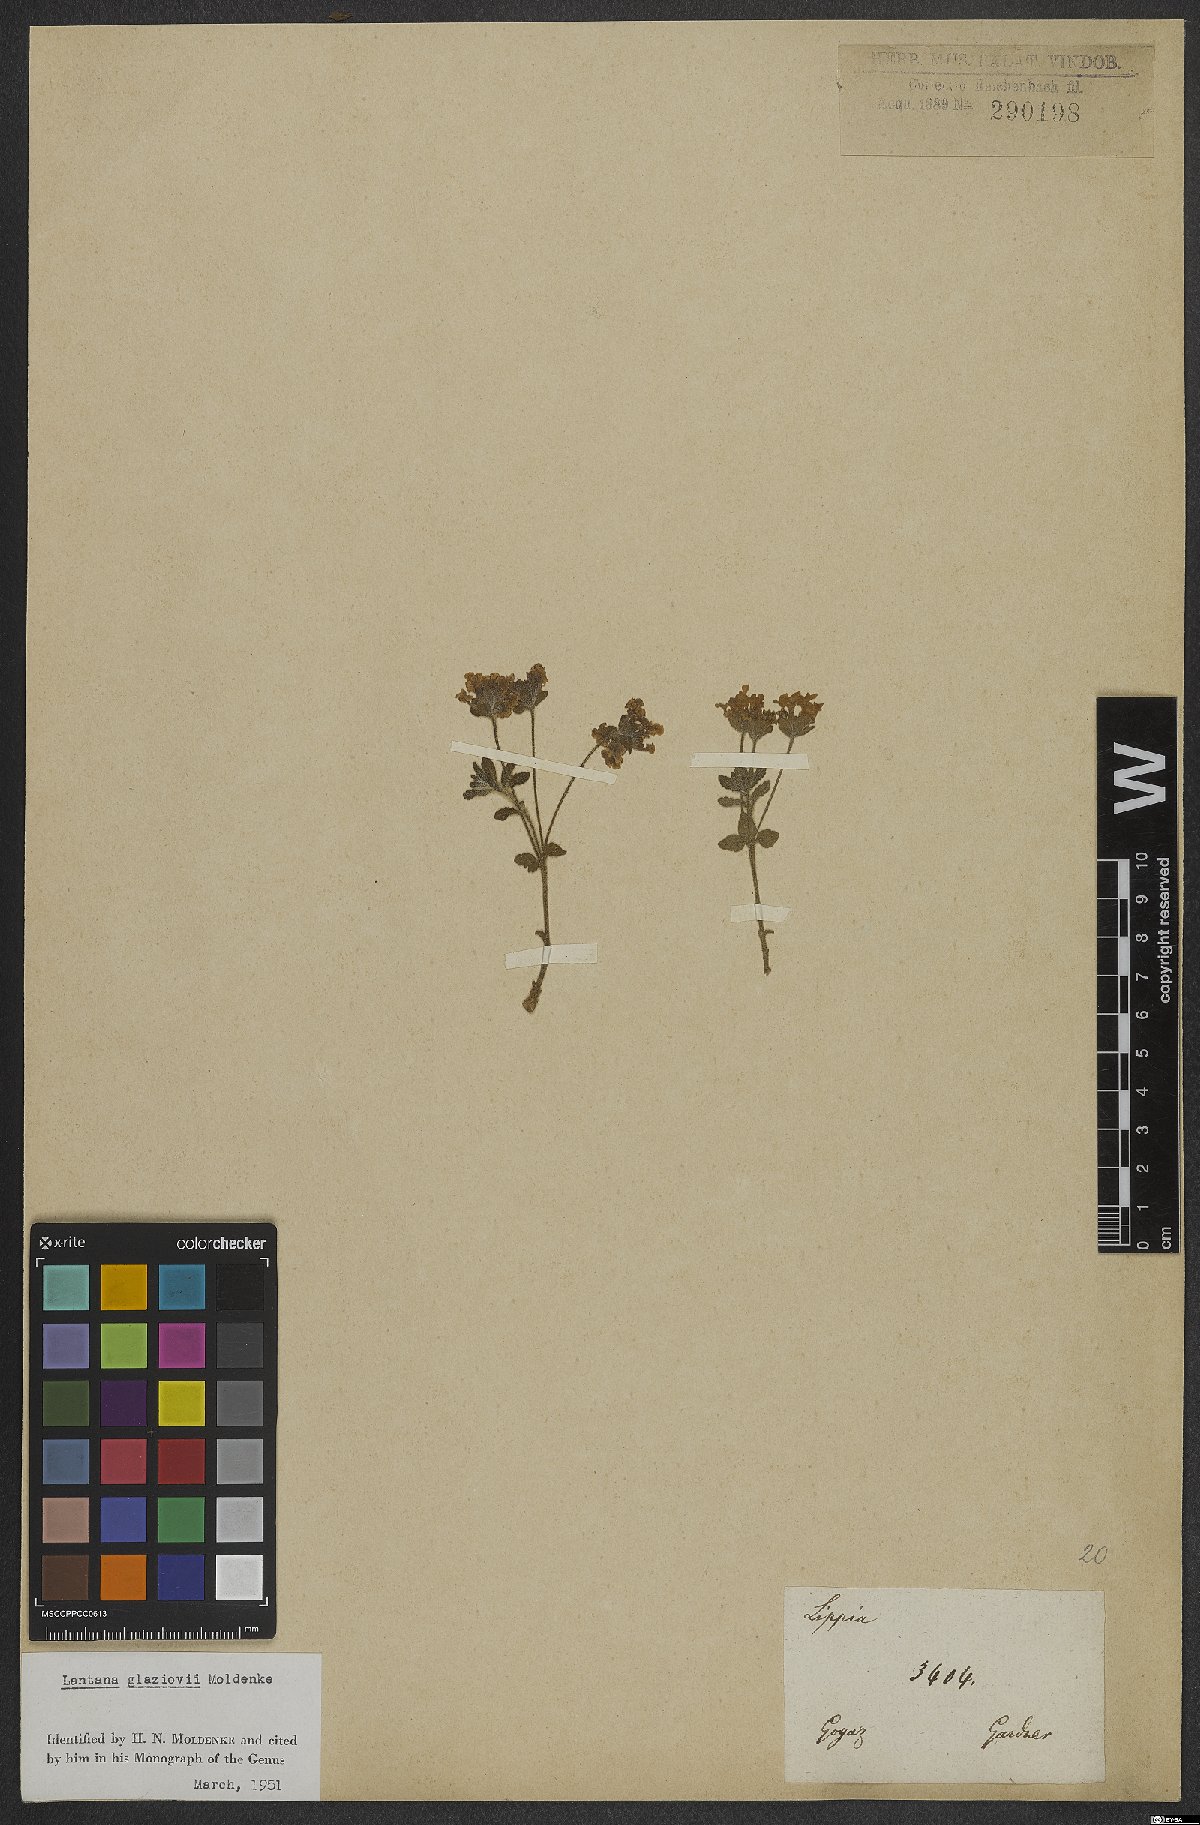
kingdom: Plantae
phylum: Tracheophyta
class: Magnoliopsida
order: Lamiales
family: Verbenaceae
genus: Lantana
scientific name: Lantana glaziovii
